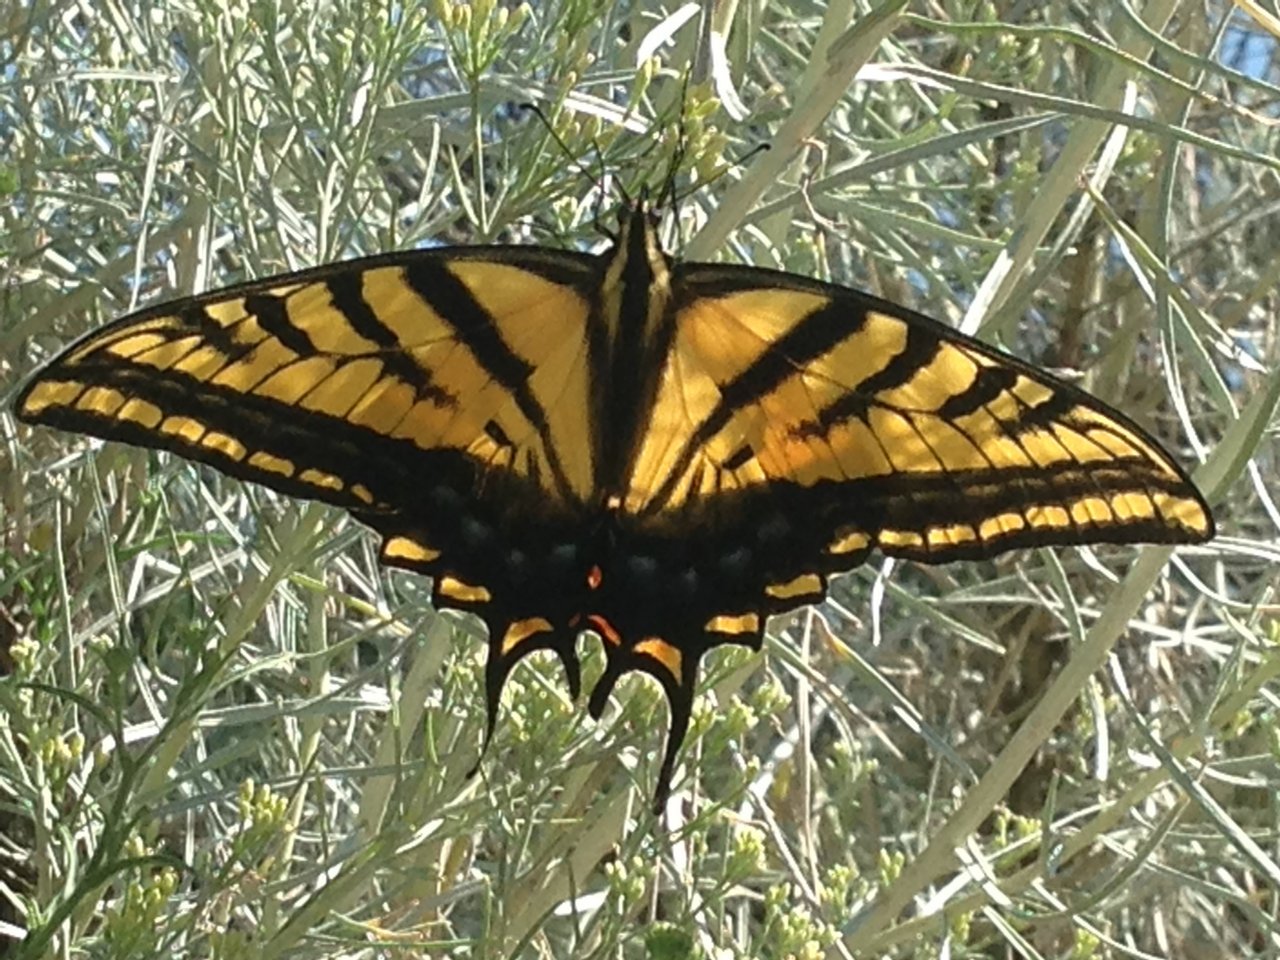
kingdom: Animalia
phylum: Arthropoda
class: Insecta
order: Lepidoptera
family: Papilionidae
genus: Papilio
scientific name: Papilio multicaudata
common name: Two-tailed Swallowtail
